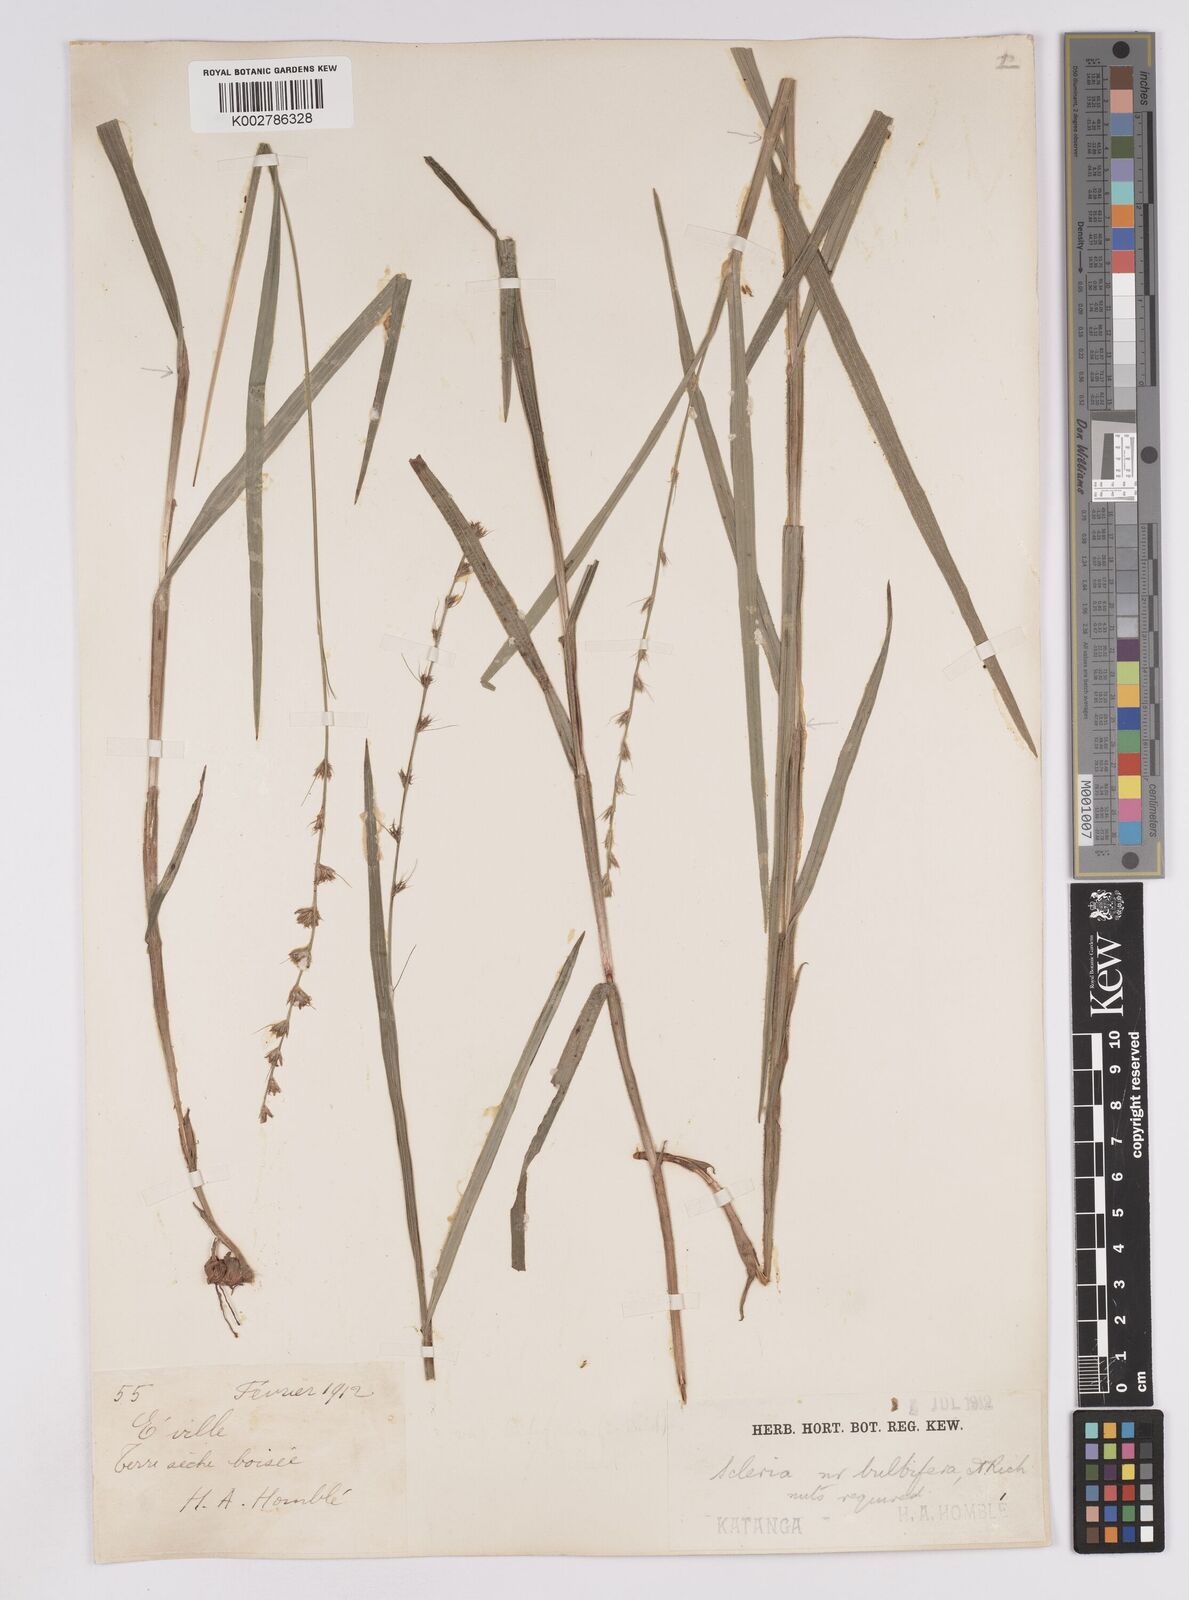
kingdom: Plantae
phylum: Tracheophyta
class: Liliopsida
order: Poales
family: Cyperaceae
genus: Scleria
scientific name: Scleria bulbifera
